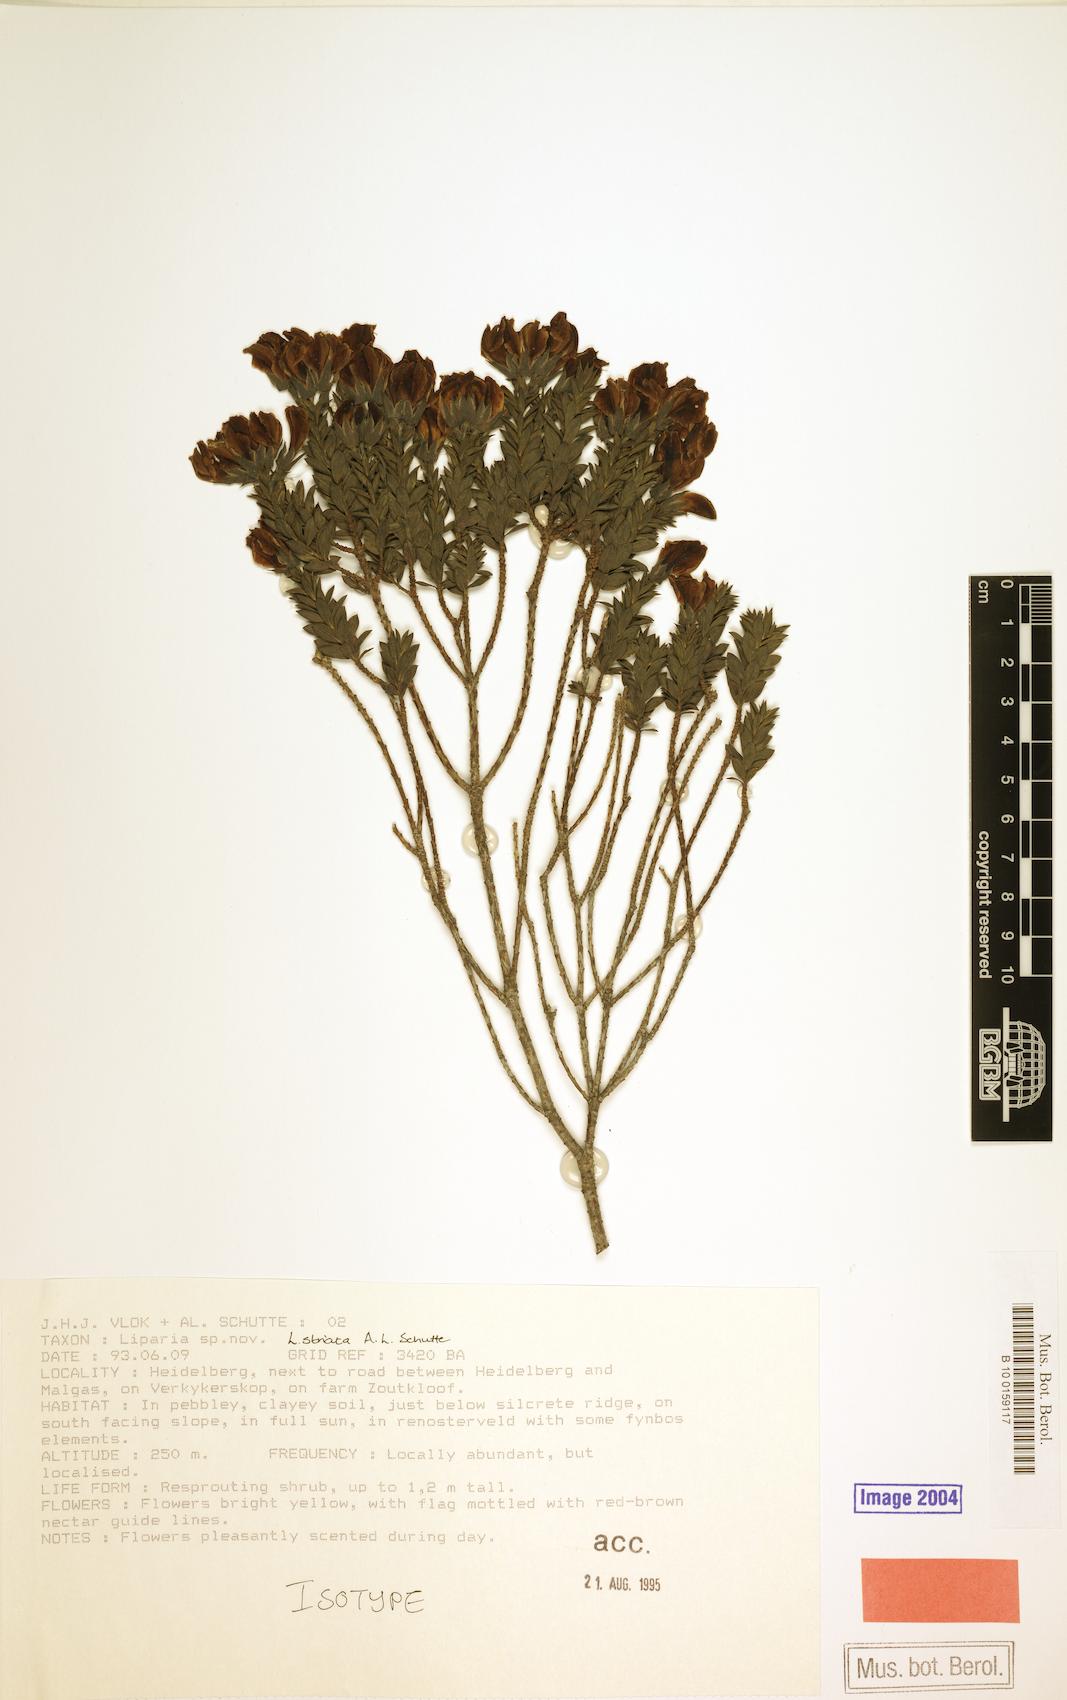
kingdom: Plantae
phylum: Tracheophyta
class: Magnoliopsida
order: Fabales
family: Fabaceae
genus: Liparia
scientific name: Liparia striata
